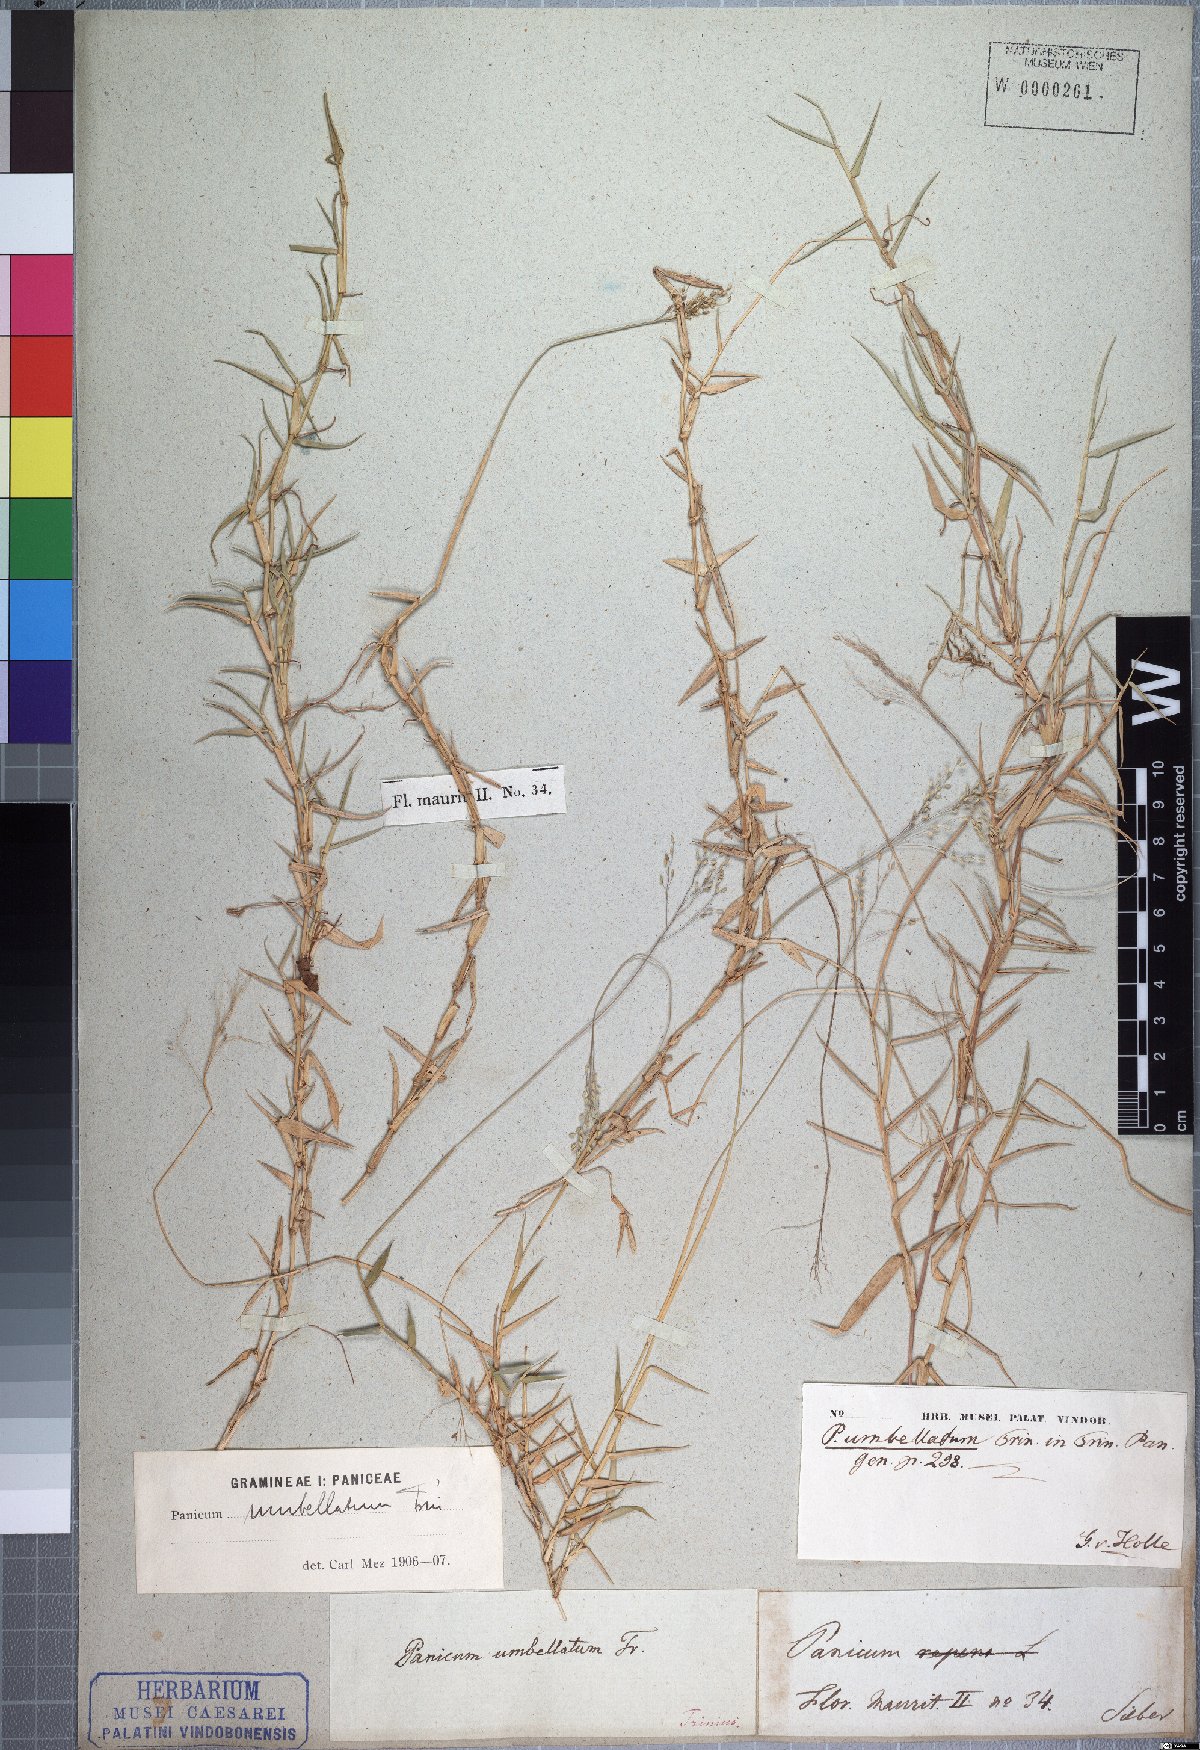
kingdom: Plantae
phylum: Tracheophyta
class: Liliopsida
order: Poales
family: Poaceae
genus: Urochloa
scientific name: Urochloa Brachiaria umbellata
